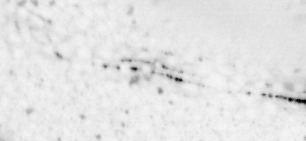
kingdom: Animalia
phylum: Chordata
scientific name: Chordata
